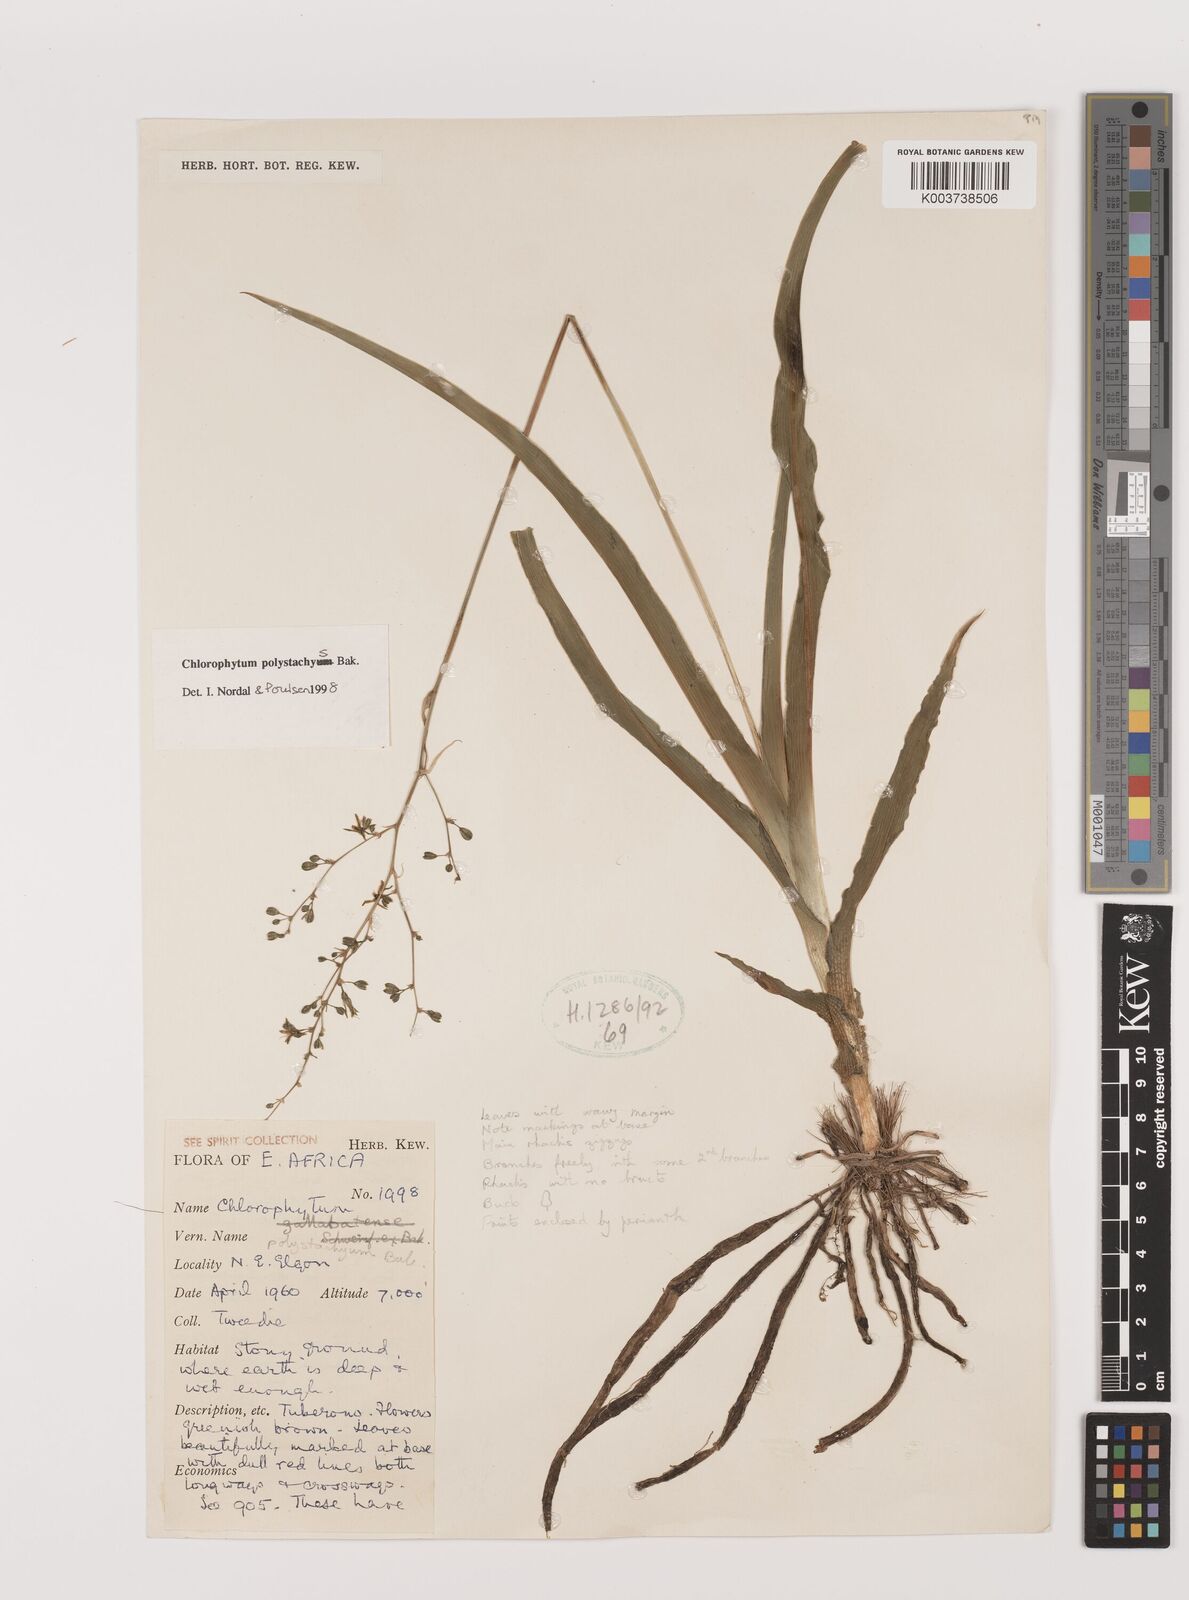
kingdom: Plantae
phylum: Tracheophyta
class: Liliopsida
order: Asparagales
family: Asparagaceae
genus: Chlorophytum
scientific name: Chlorophytum polystachys
